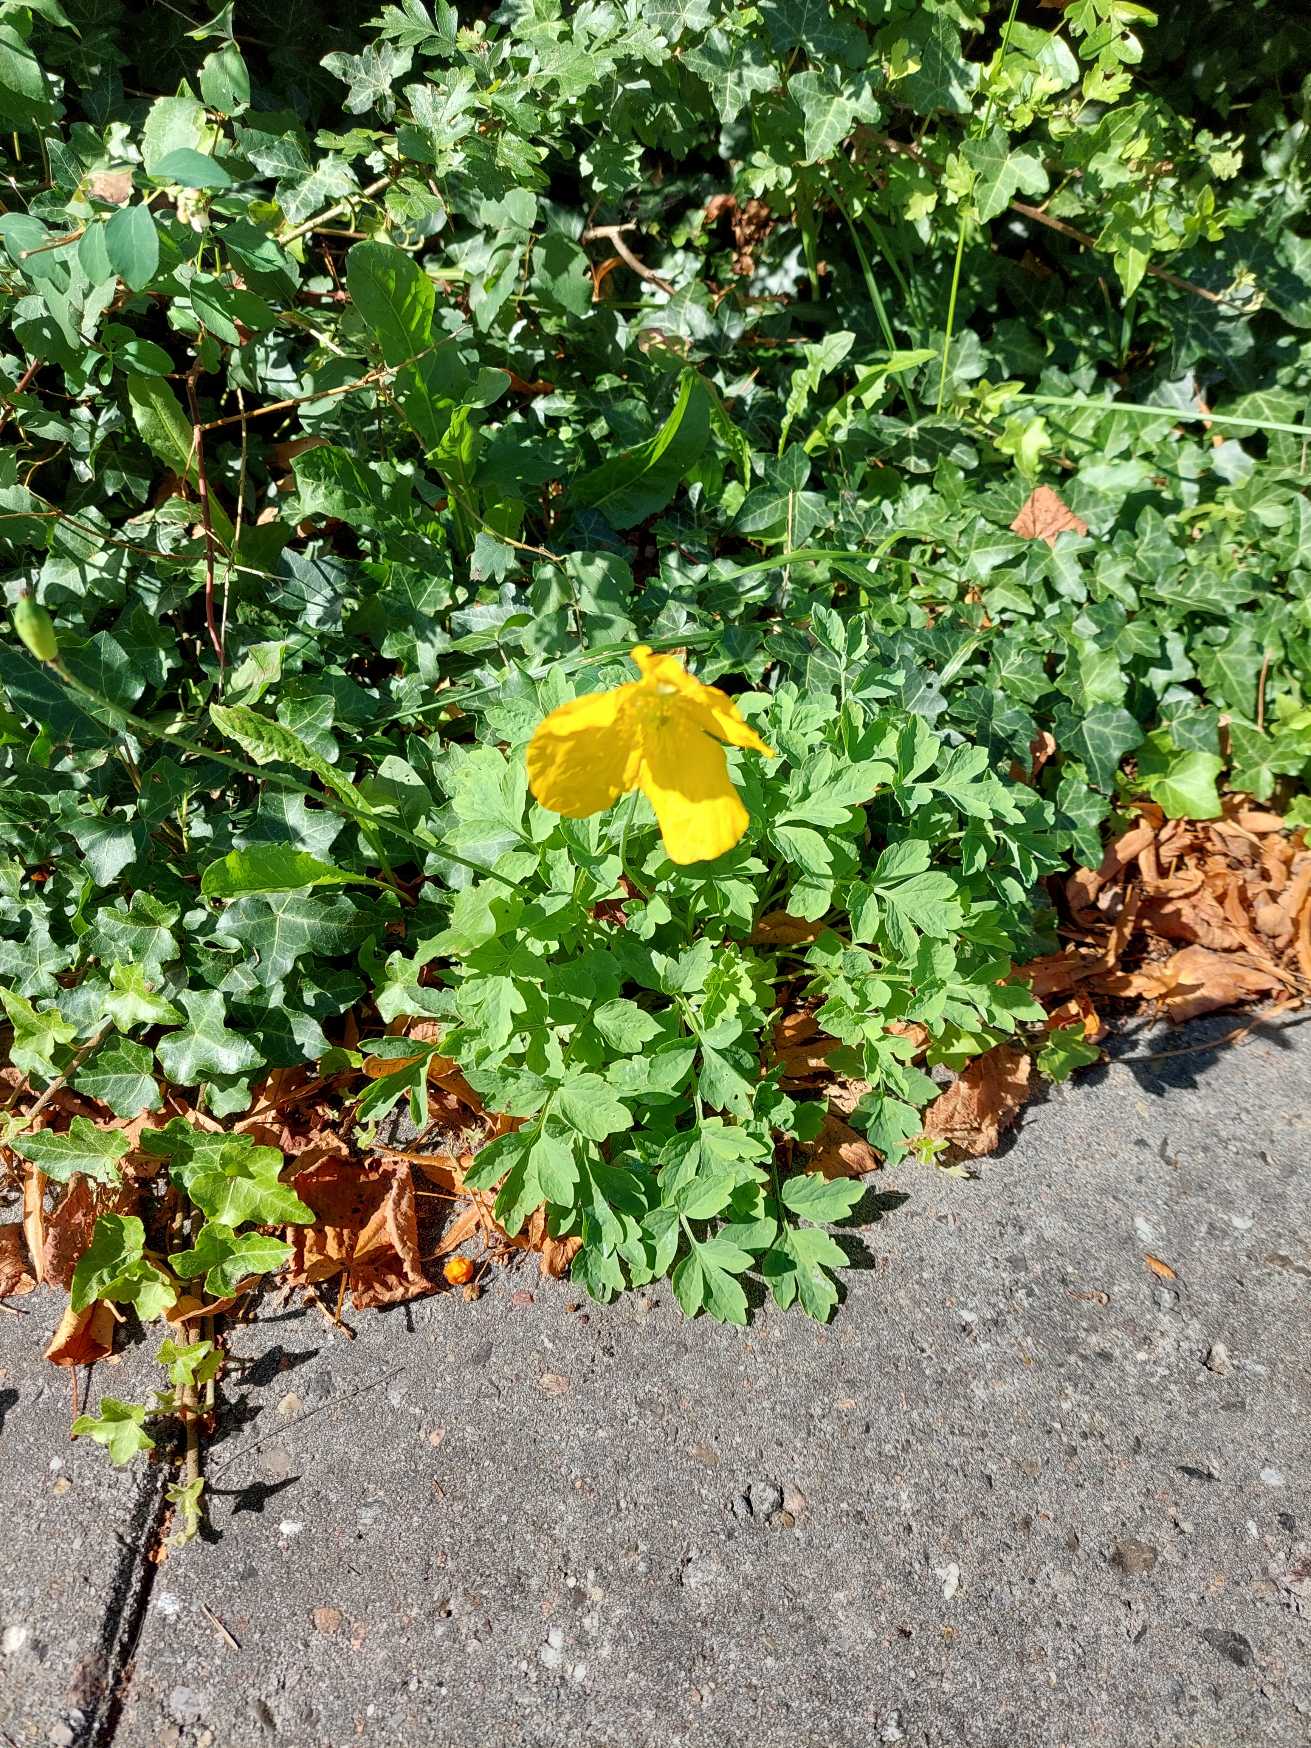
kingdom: Plantae
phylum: Tracheophyta
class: Magnoliopsida
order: Ranunculales
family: Papaveraceae
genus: Papaver
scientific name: Papaver cambricum
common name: Skov-valmue
